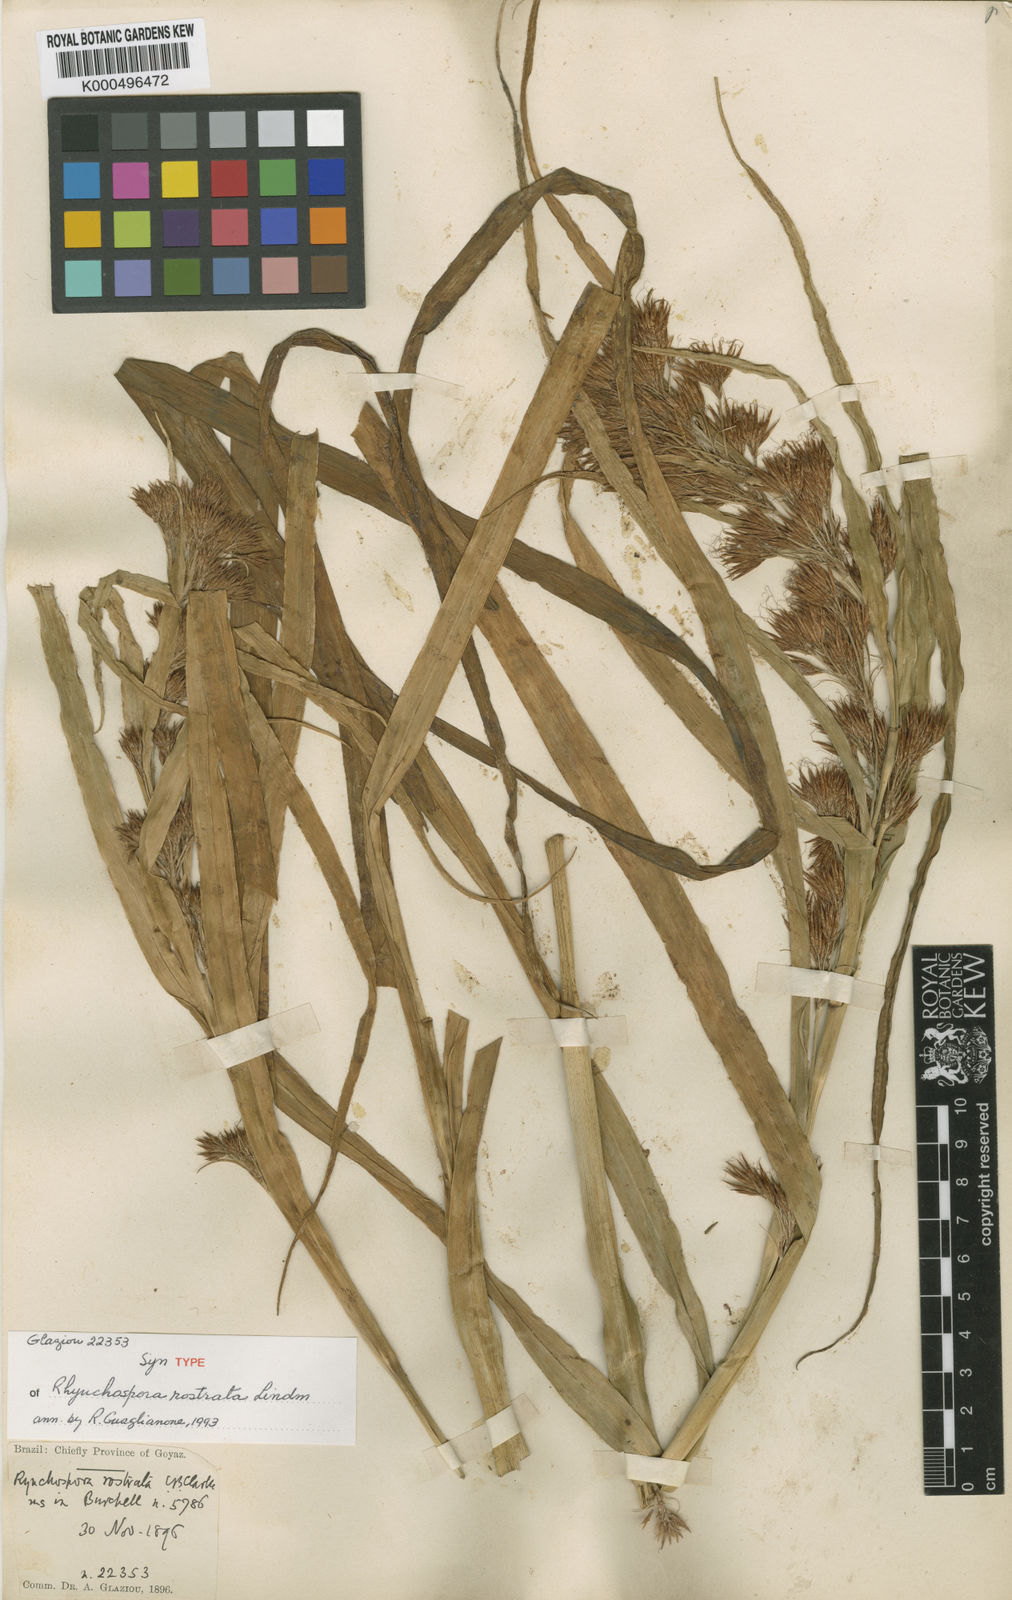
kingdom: Plantae
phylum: Tracheophyta
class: Liliopsida
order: Poales
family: Cyperaceae
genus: Rhynchospora
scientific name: Rhynchospora rostrata
